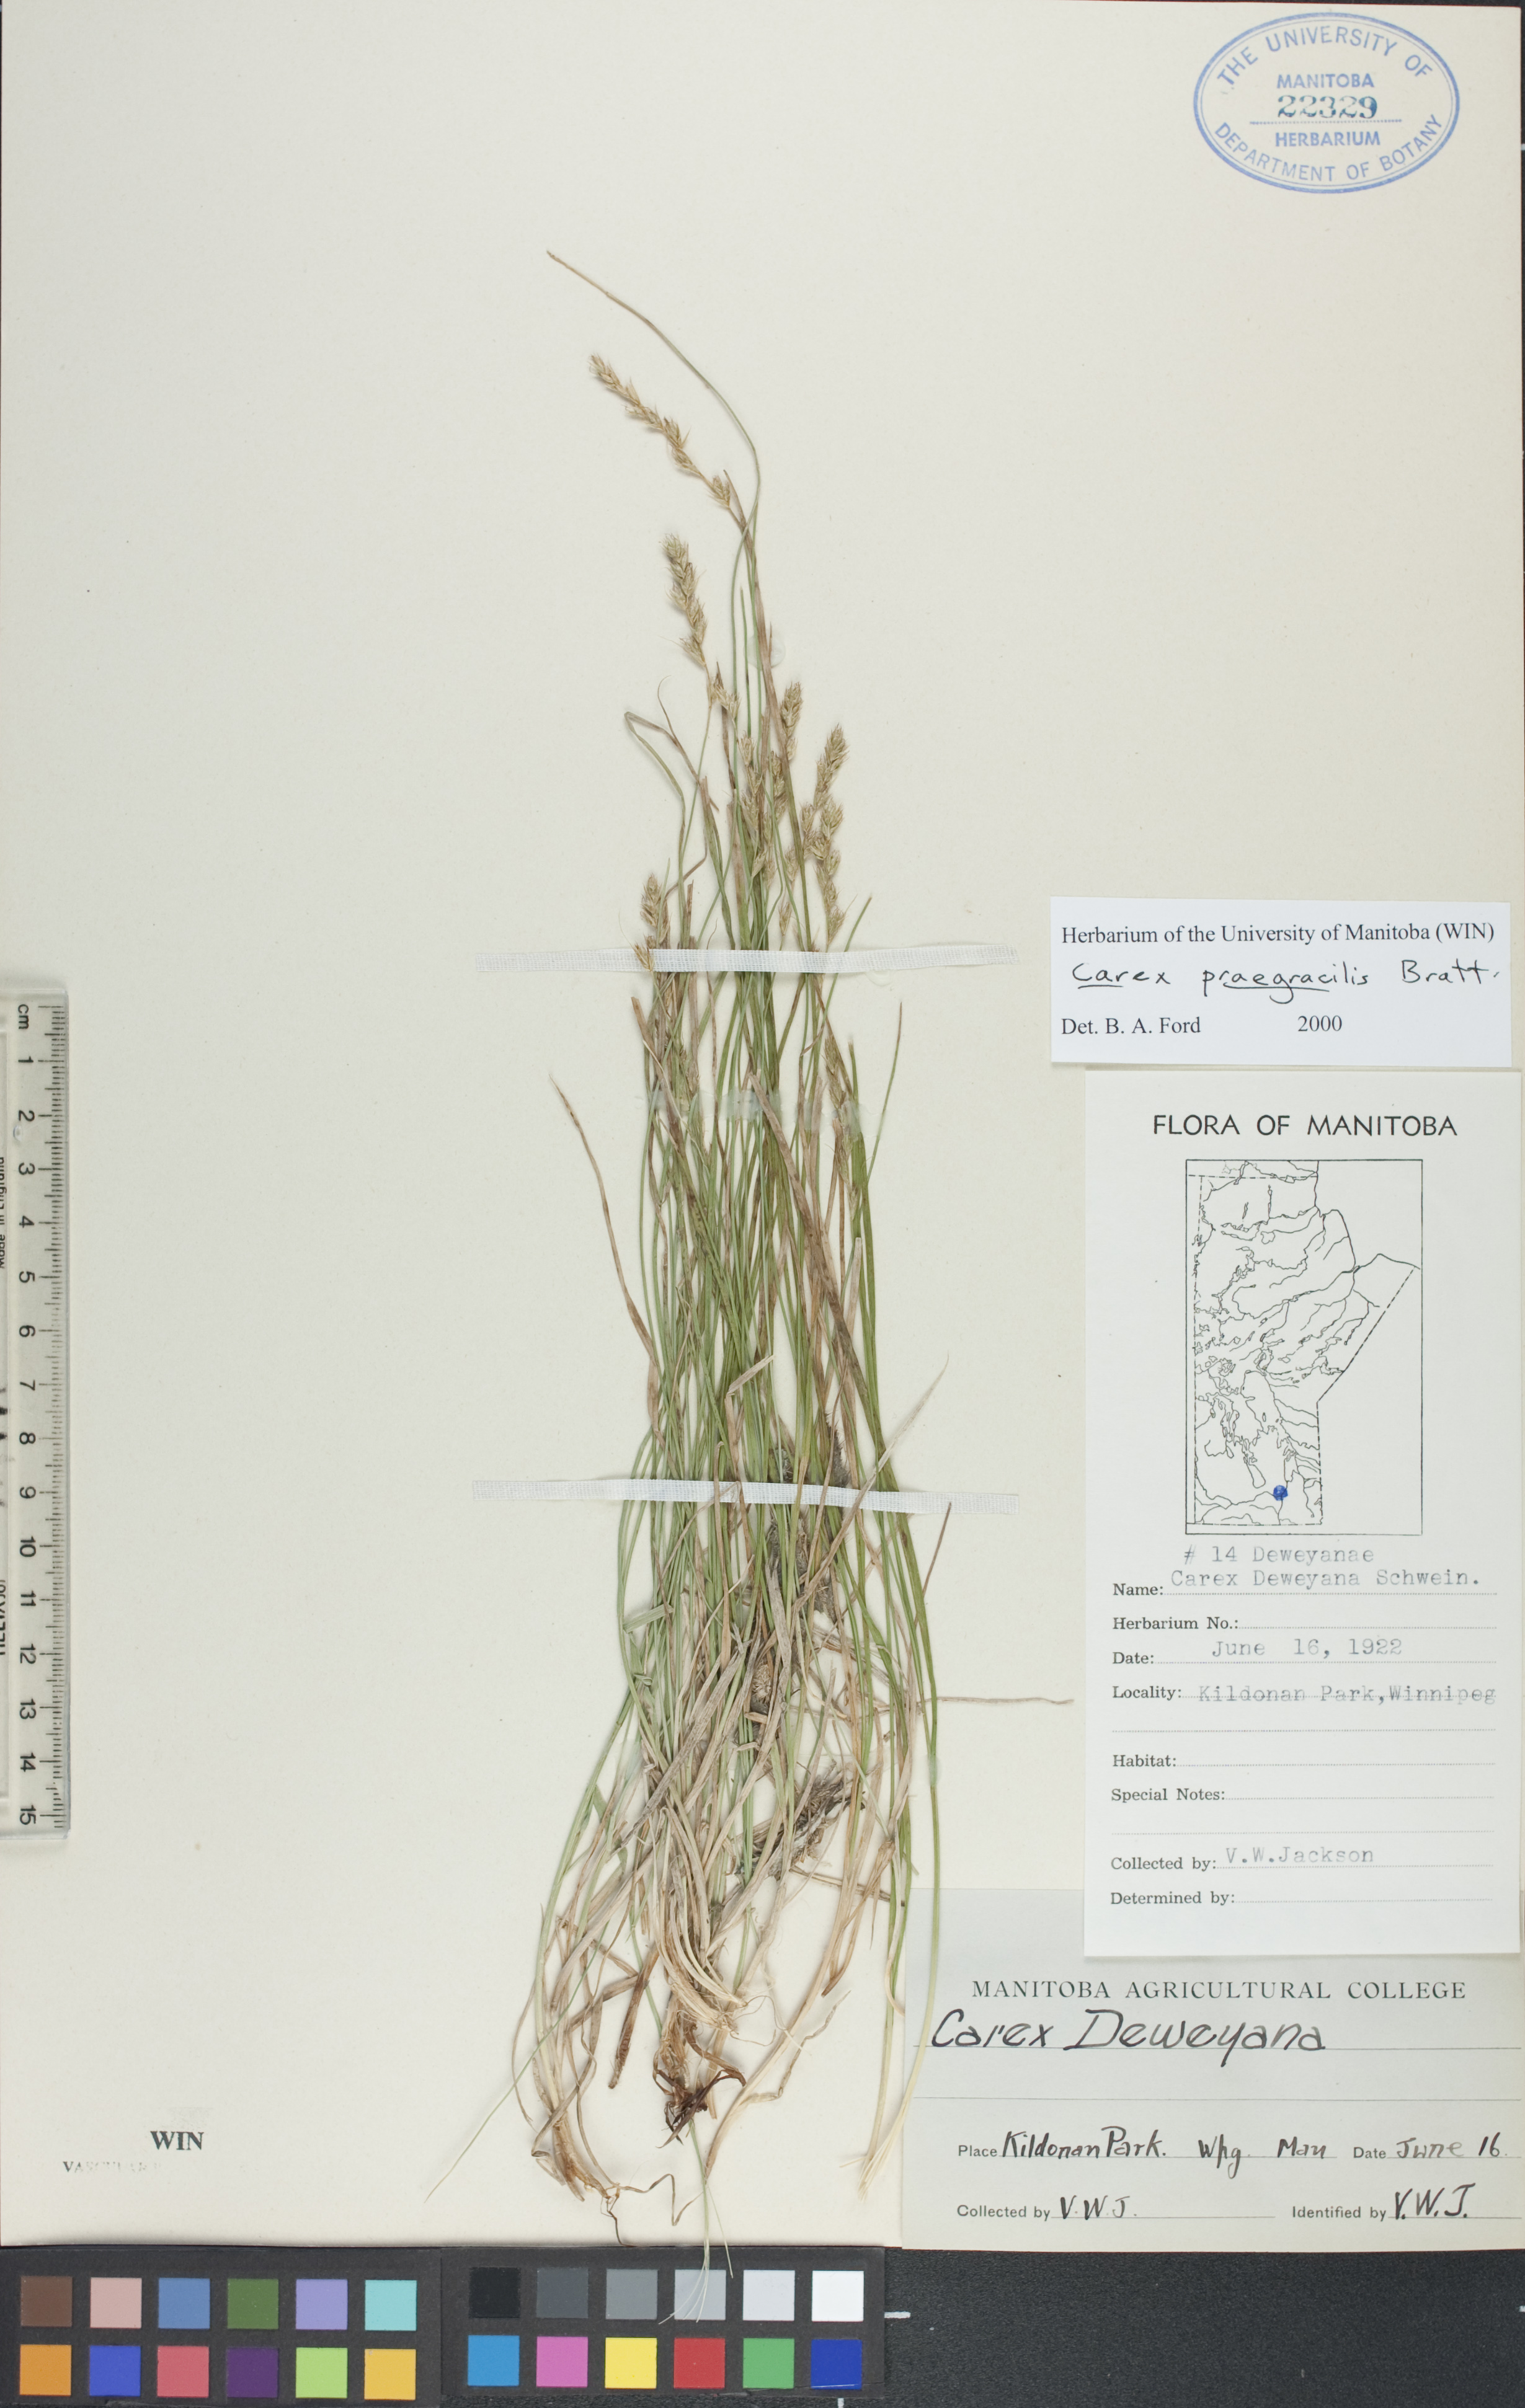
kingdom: Plantae
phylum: Tracheophyta
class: Liliopsida
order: Poales
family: Cyperaceae
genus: Carex
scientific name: Carex praegracilis
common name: Black creeper sedge
